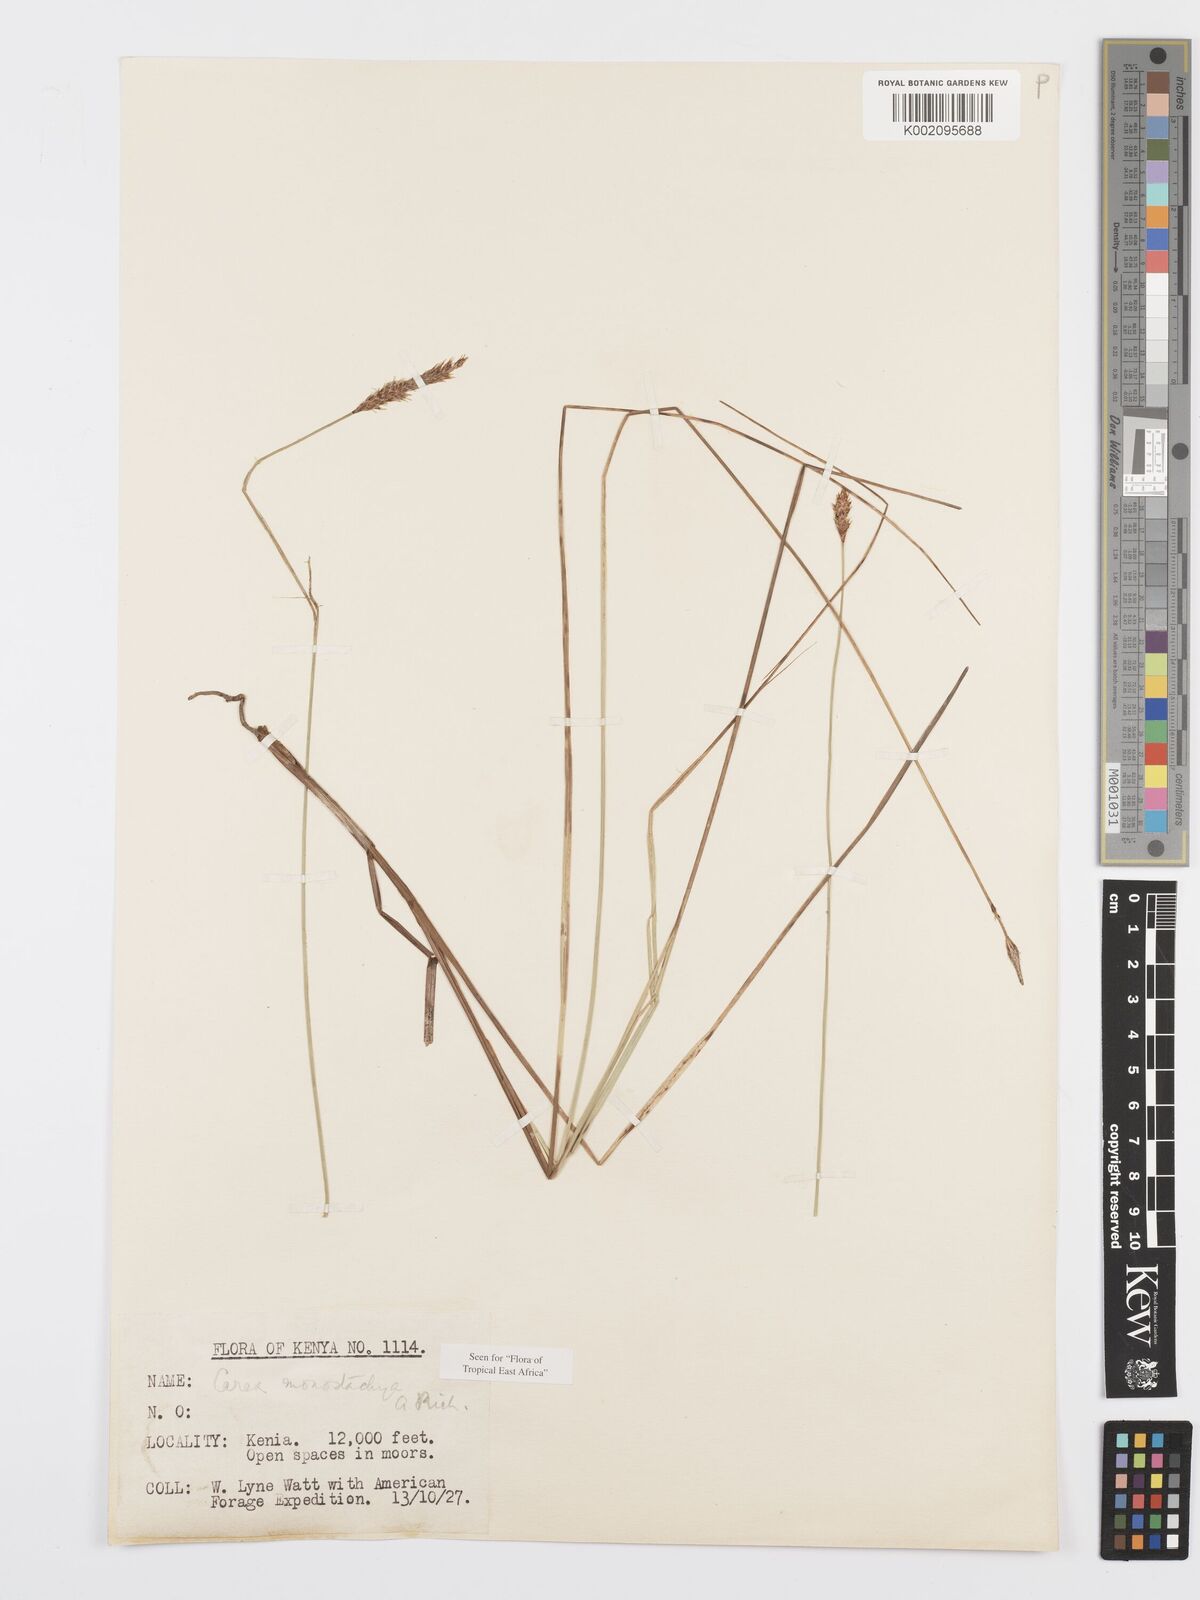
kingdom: Plantae
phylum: Tracheophyta
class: Liliopsida
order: Poales
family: Cyperaceae
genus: Carex
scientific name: Carex monostachya
